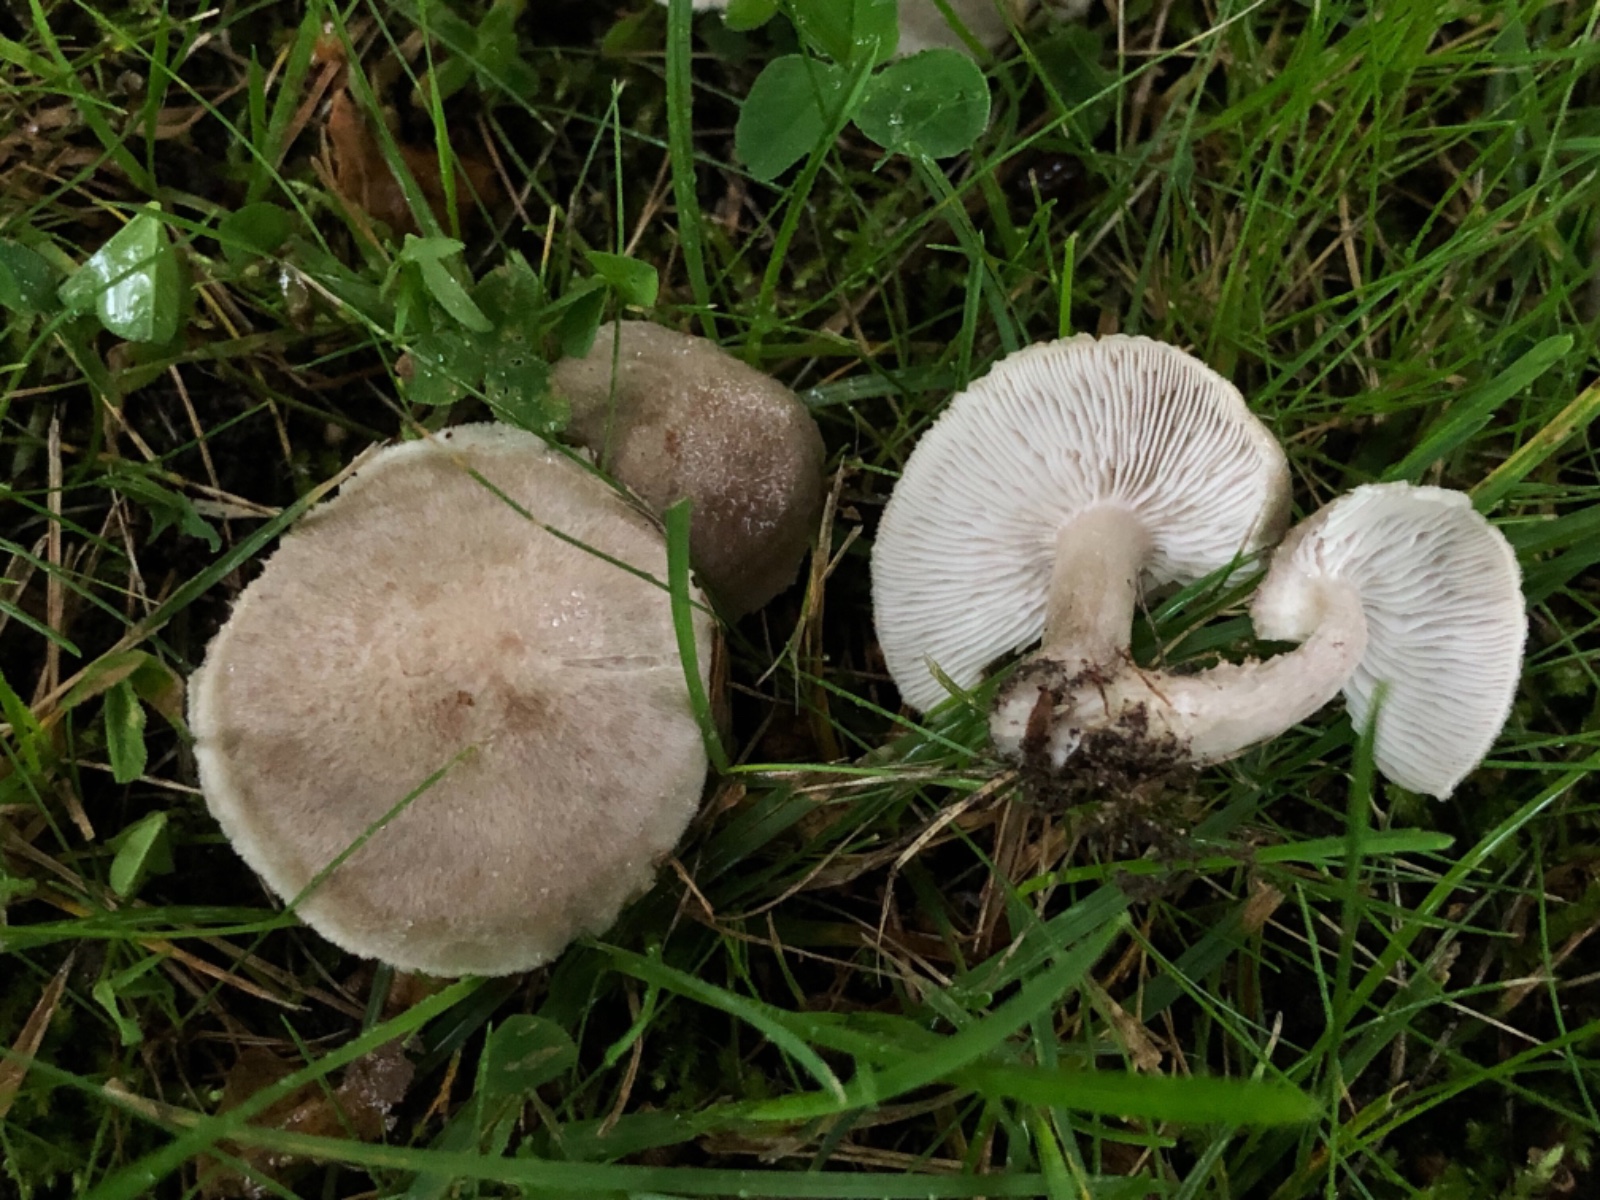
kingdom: Fungi
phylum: Basidiomycota
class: Agaricomycetes
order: Agaricales
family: Tricholomataceae
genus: Tricholoma
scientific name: Tricholoma argyraceum
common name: spids ridderhat
